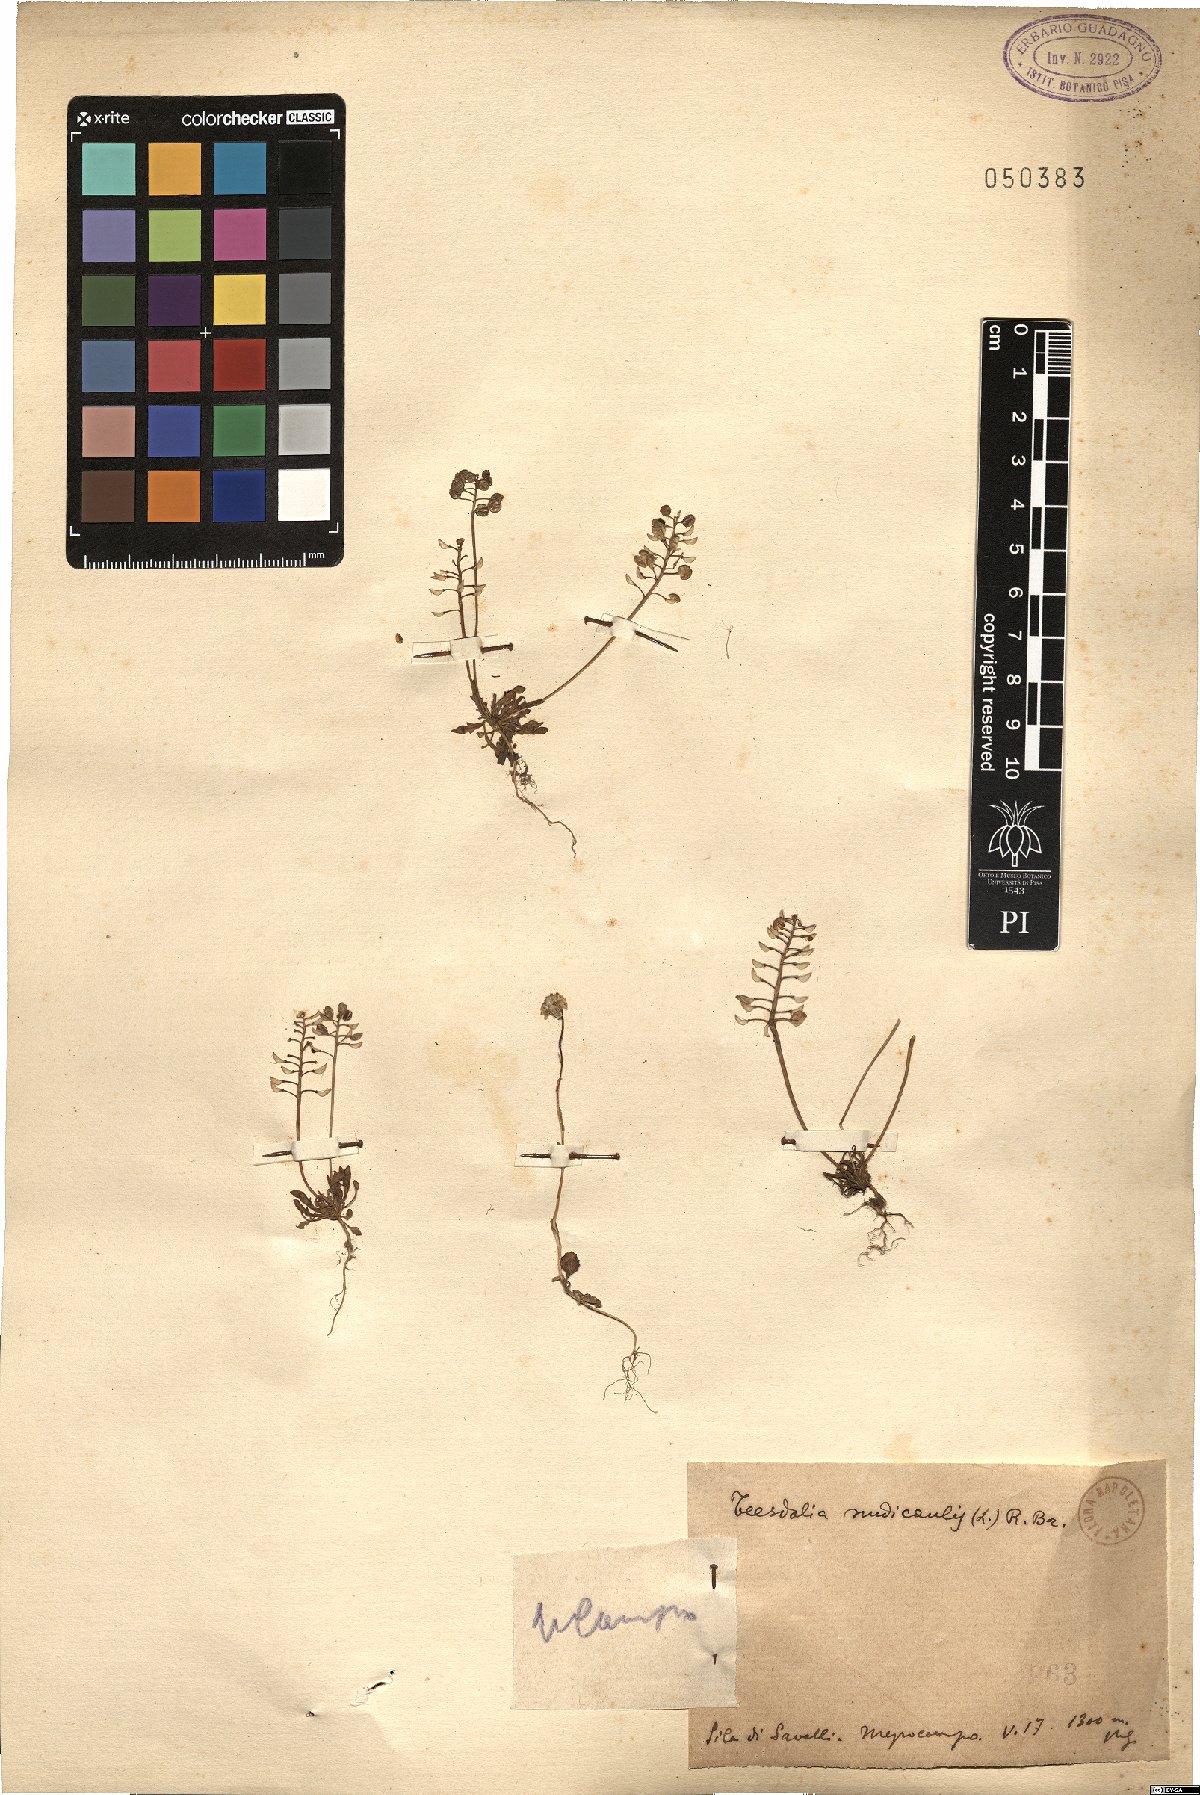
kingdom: Plantae
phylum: Tracheophyta
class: Magnoliopsida
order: Brassicales
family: Brassicaceae
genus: Teesdalia
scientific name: Teesdalia nudicaulis
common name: Shepherd's cress
